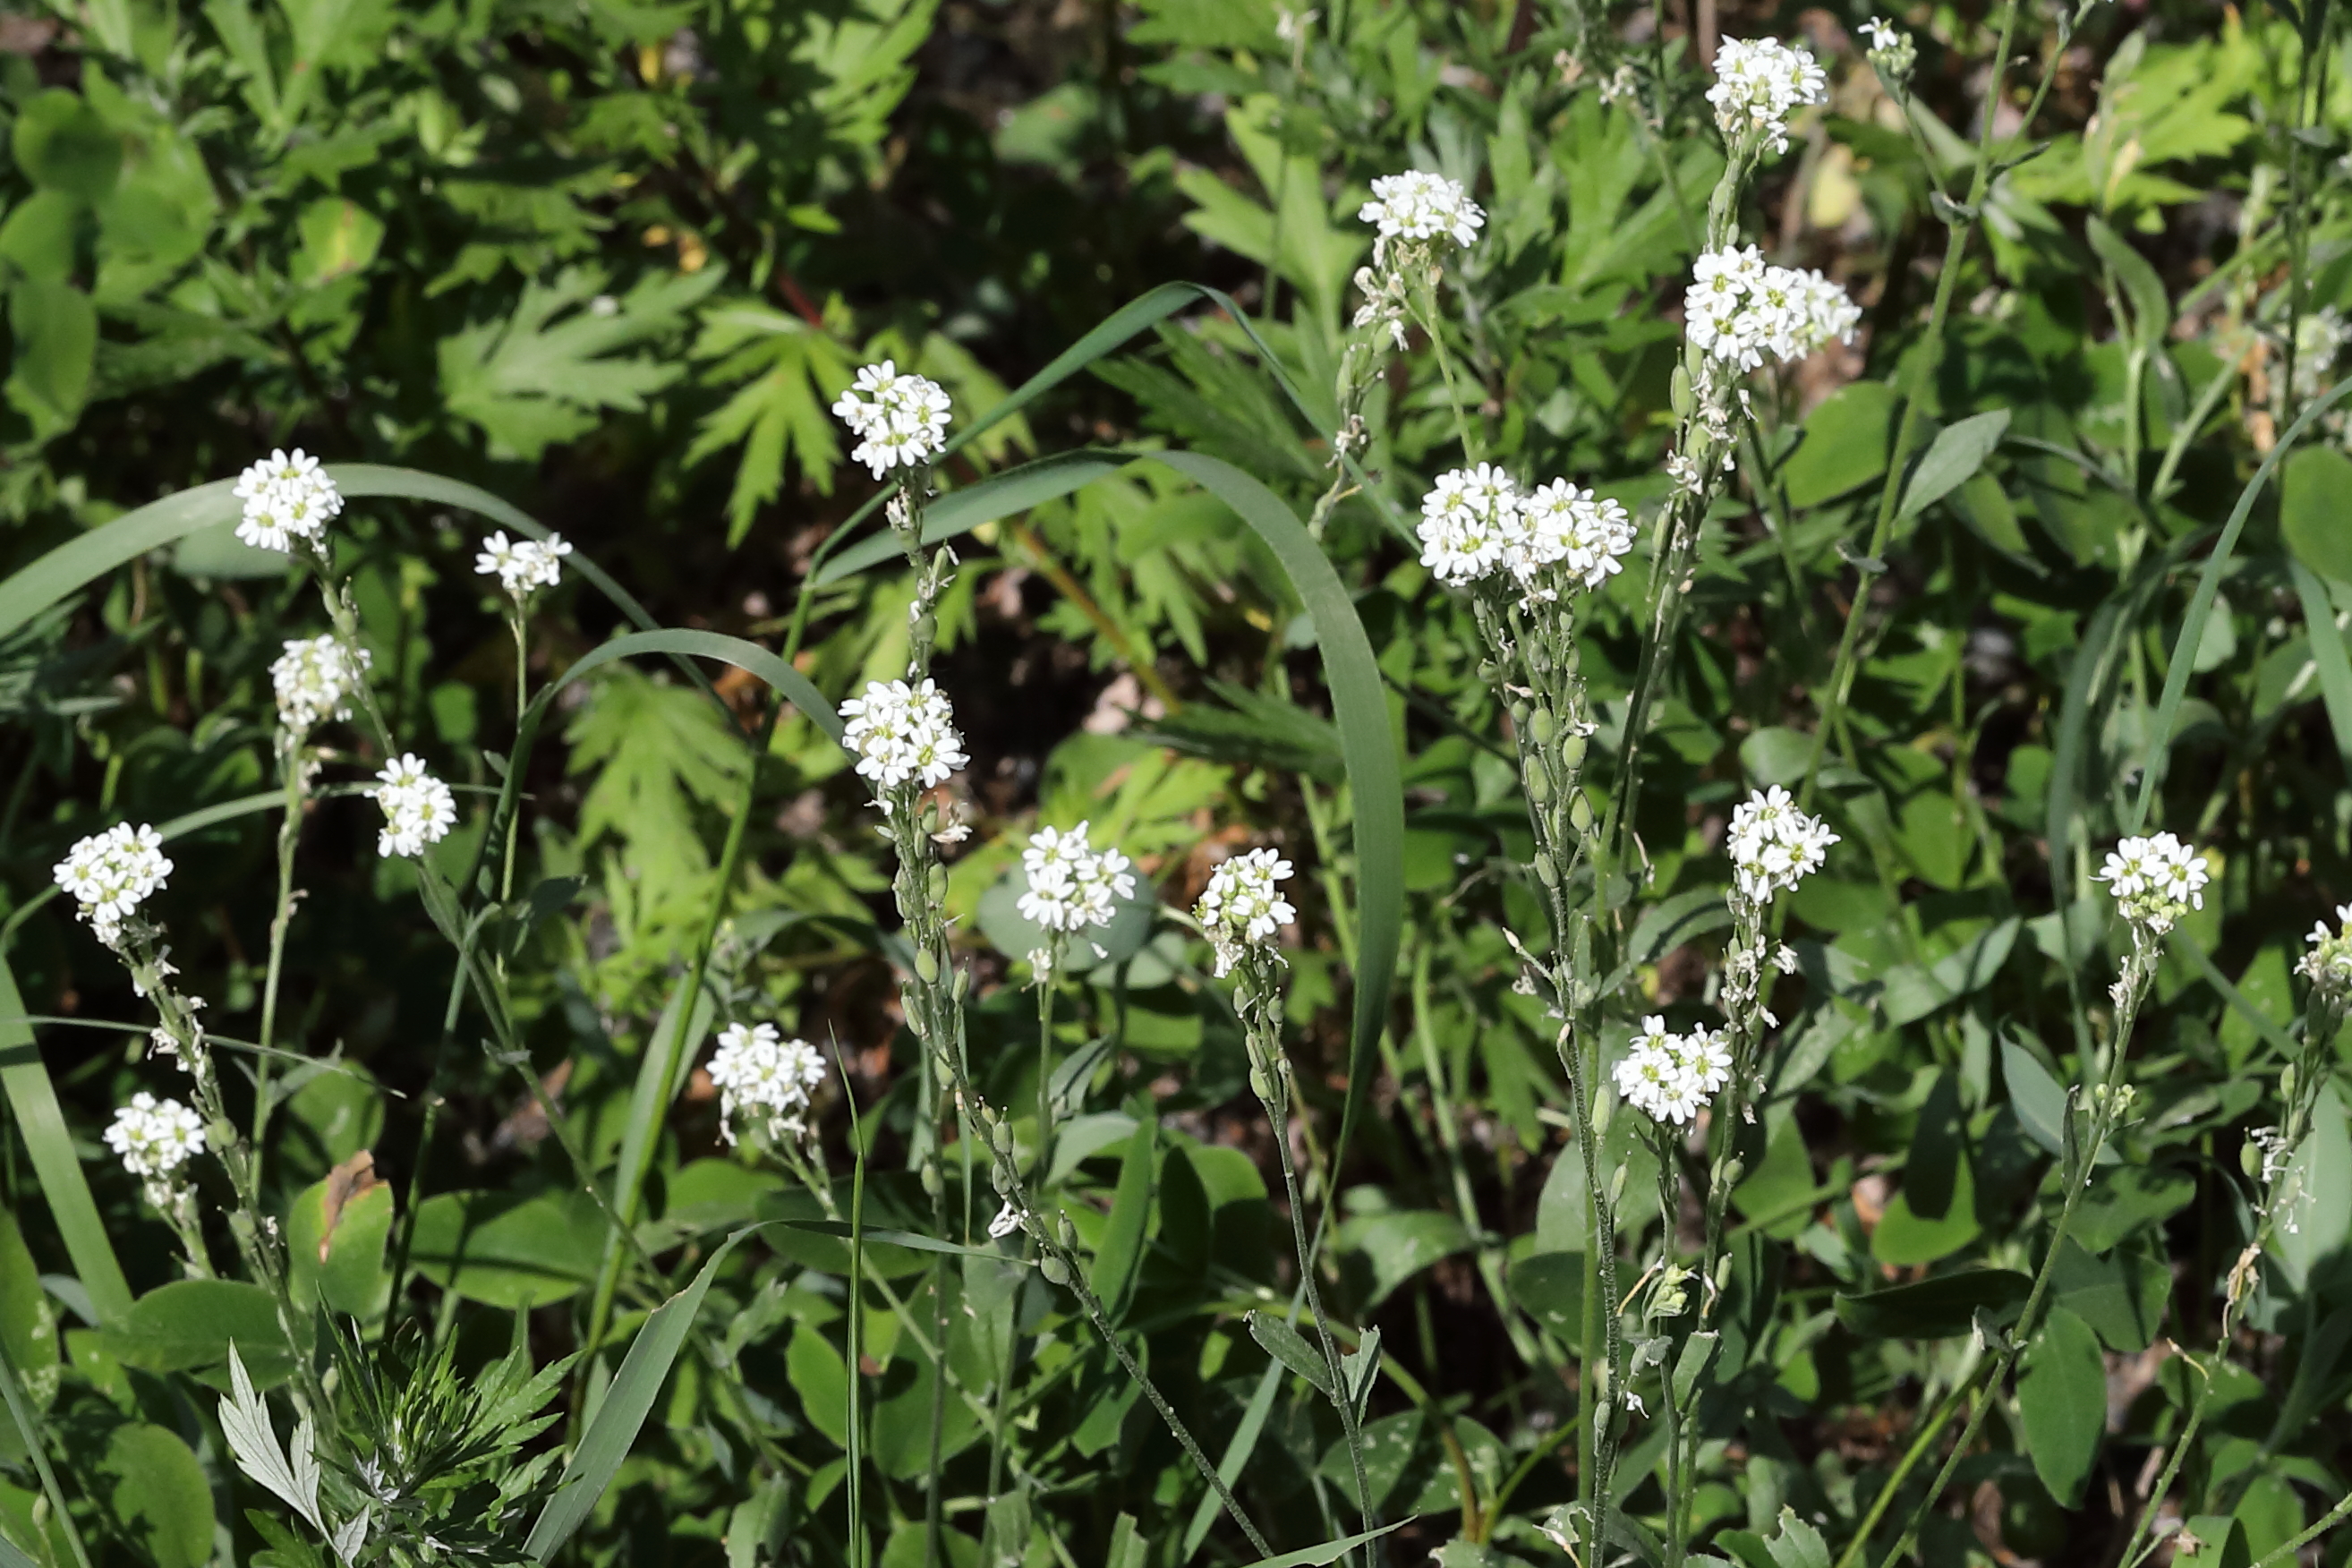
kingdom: Plantae
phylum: Tracheophyta
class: Magnoliopsida
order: Brassicales
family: Brassicaceae
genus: Berteroa
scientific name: Berteroa incana
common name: Hoary alison
